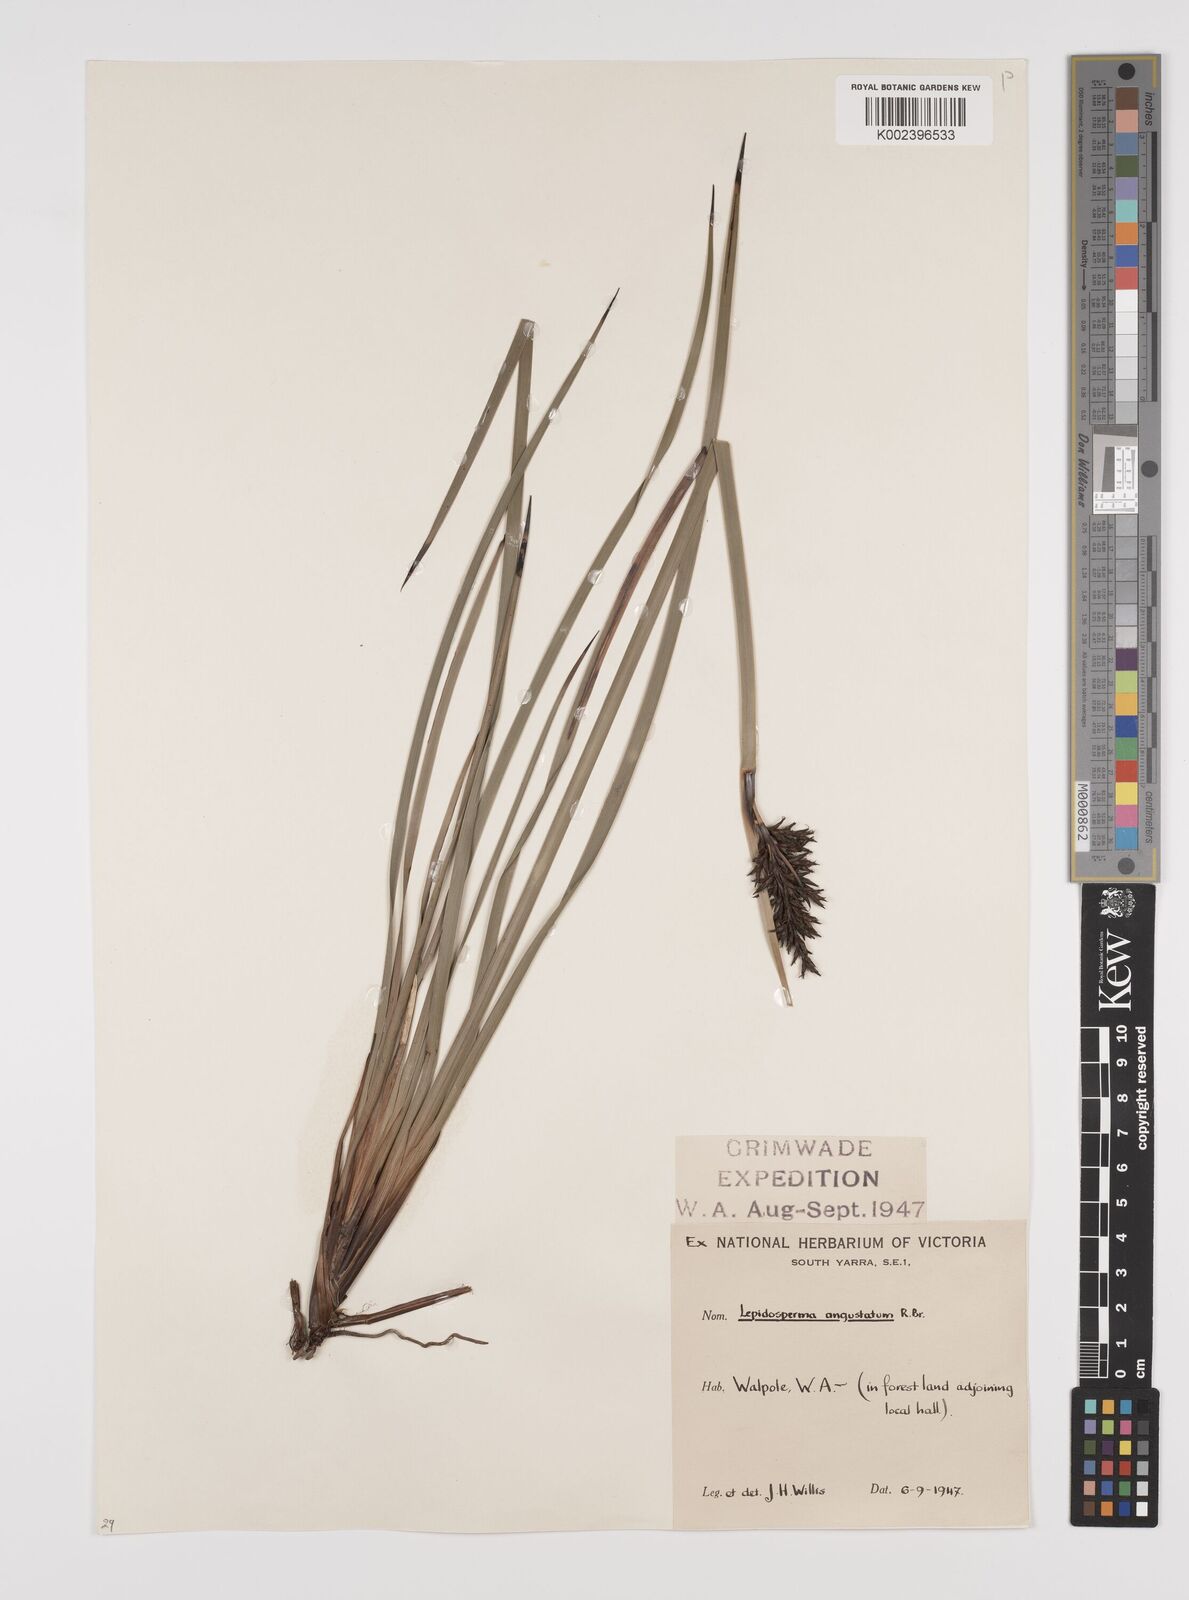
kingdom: Plantae
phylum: Tracheophyta
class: Liliopsida
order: Poales
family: Cyperaceae
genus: Lepidosperma
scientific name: Lepidosperma squamatum
